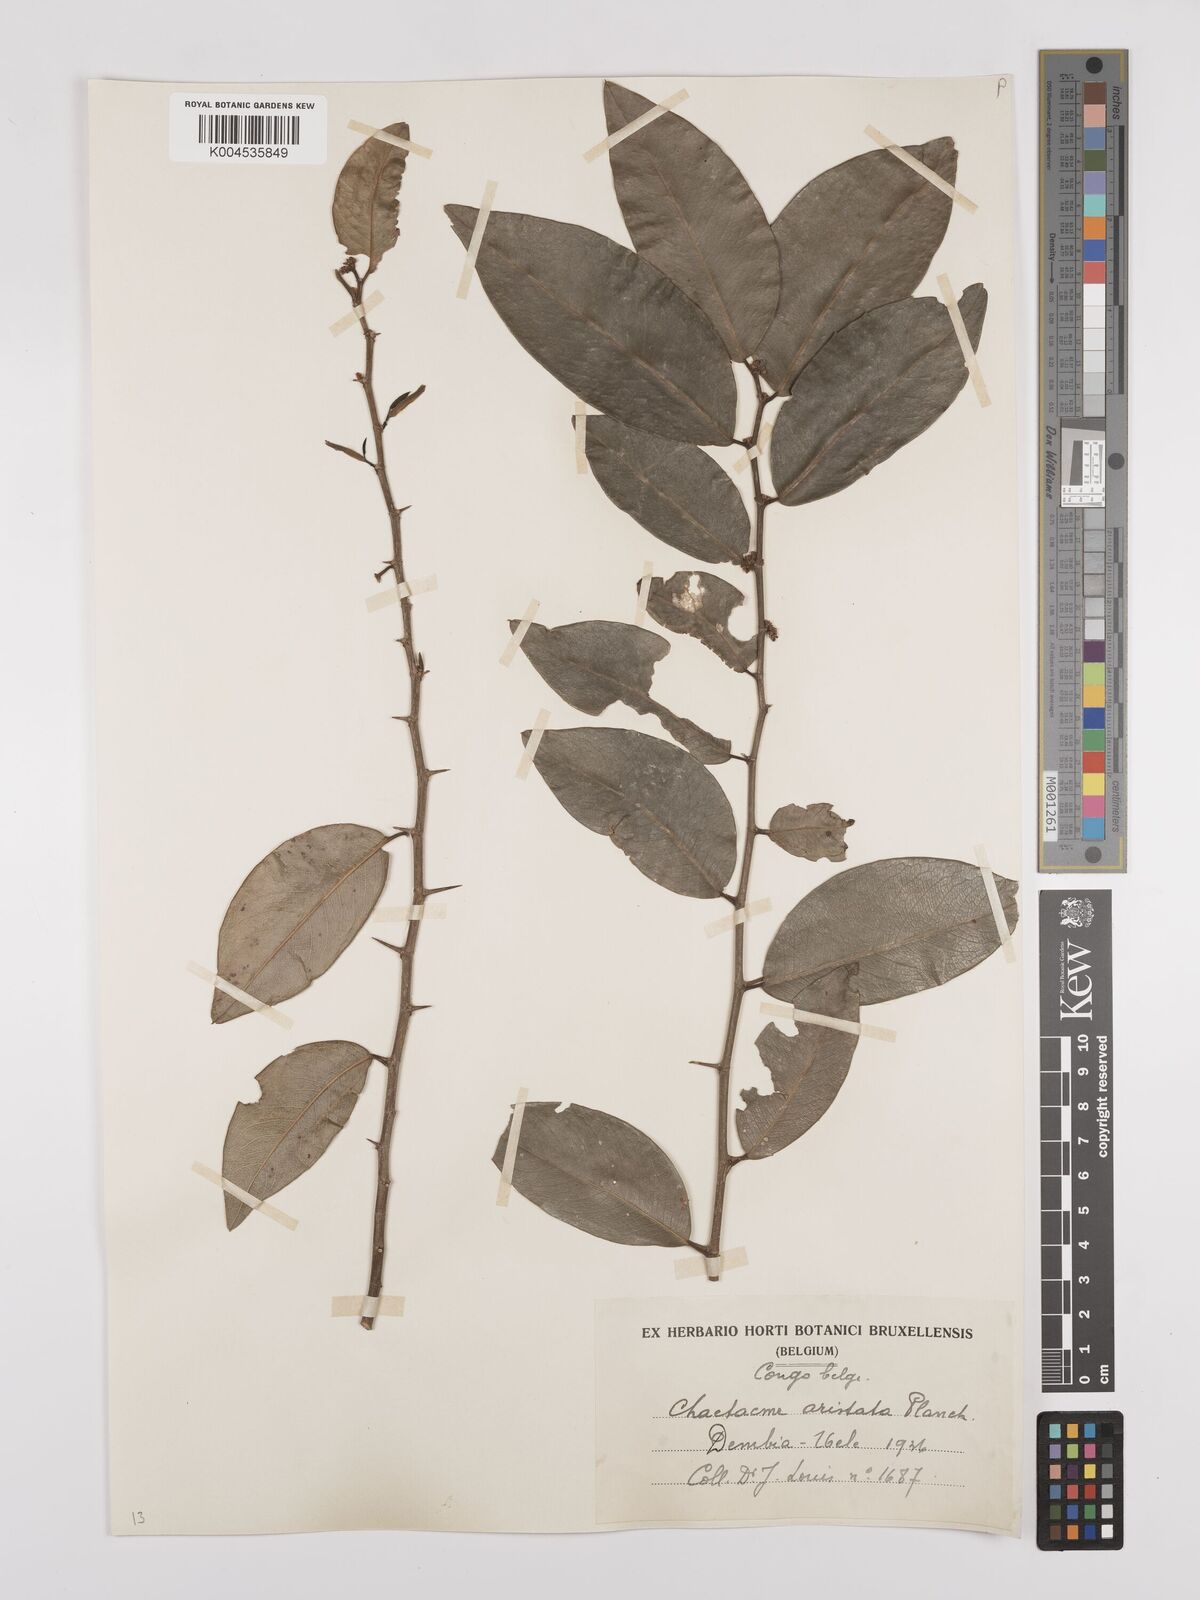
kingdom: Plantae
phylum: Tracheophyta
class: Magnoliopsida
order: Rosales
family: Cannabaceae
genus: Chaetachme
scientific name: Chaetachme aristata
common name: Thorny elm
